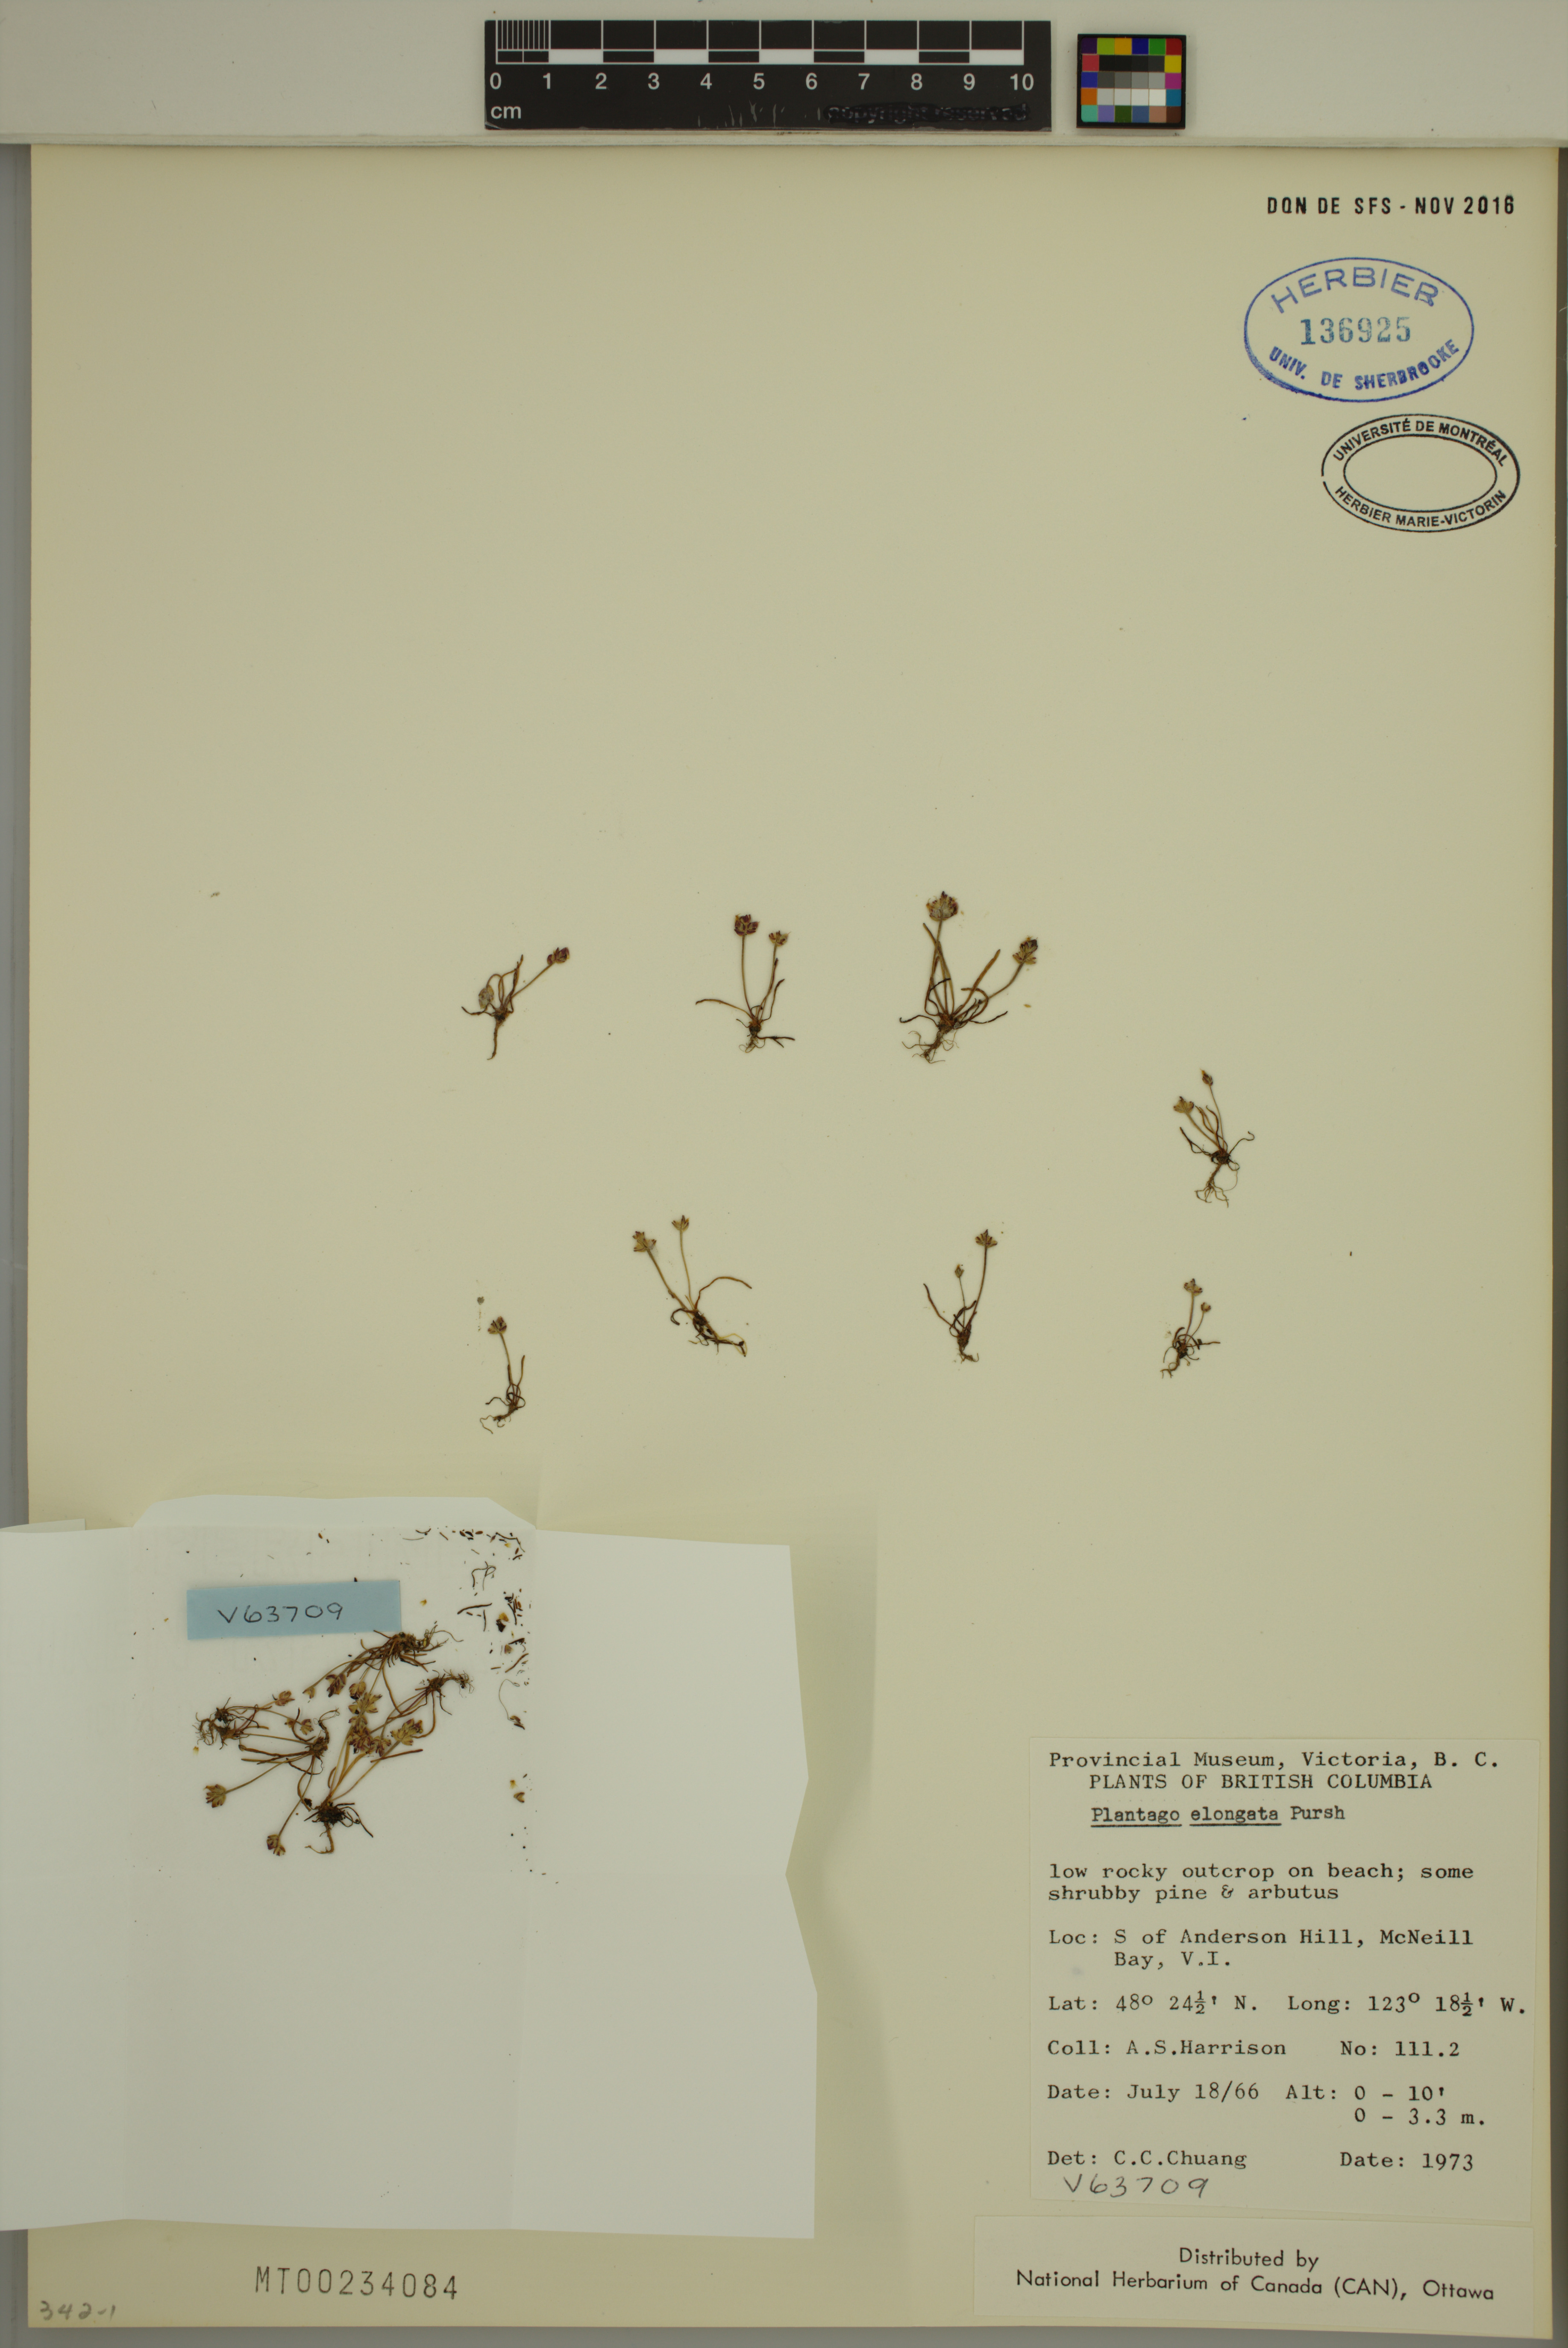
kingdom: Plantae
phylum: Tracheophyta
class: Magnoliopsida
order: Lamiales
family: Plantaginaceae
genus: Plantago
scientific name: Plantago elongata
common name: Linear-leaved plantain
